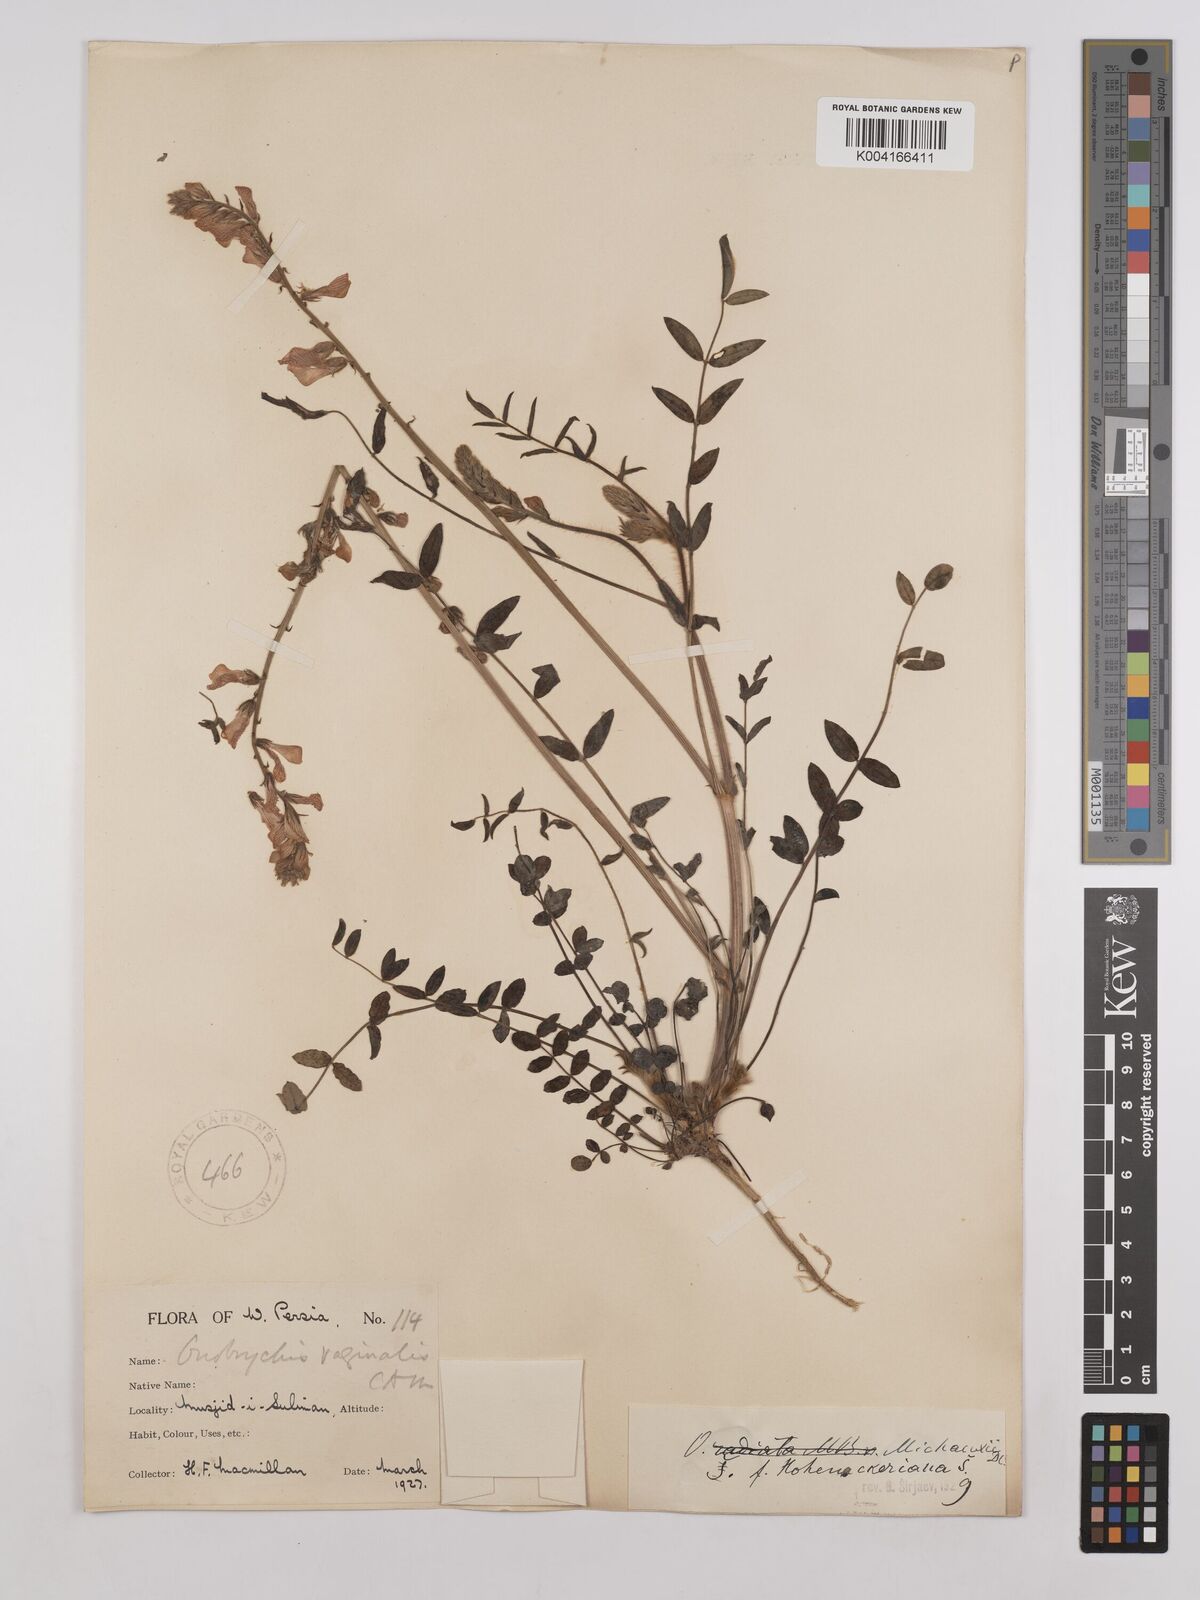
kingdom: Plantae
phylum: Tracheophyta
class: Magnoliopsida
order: Fabales
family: Fabaceae
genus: Onobrychis
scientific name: Onobrychis
